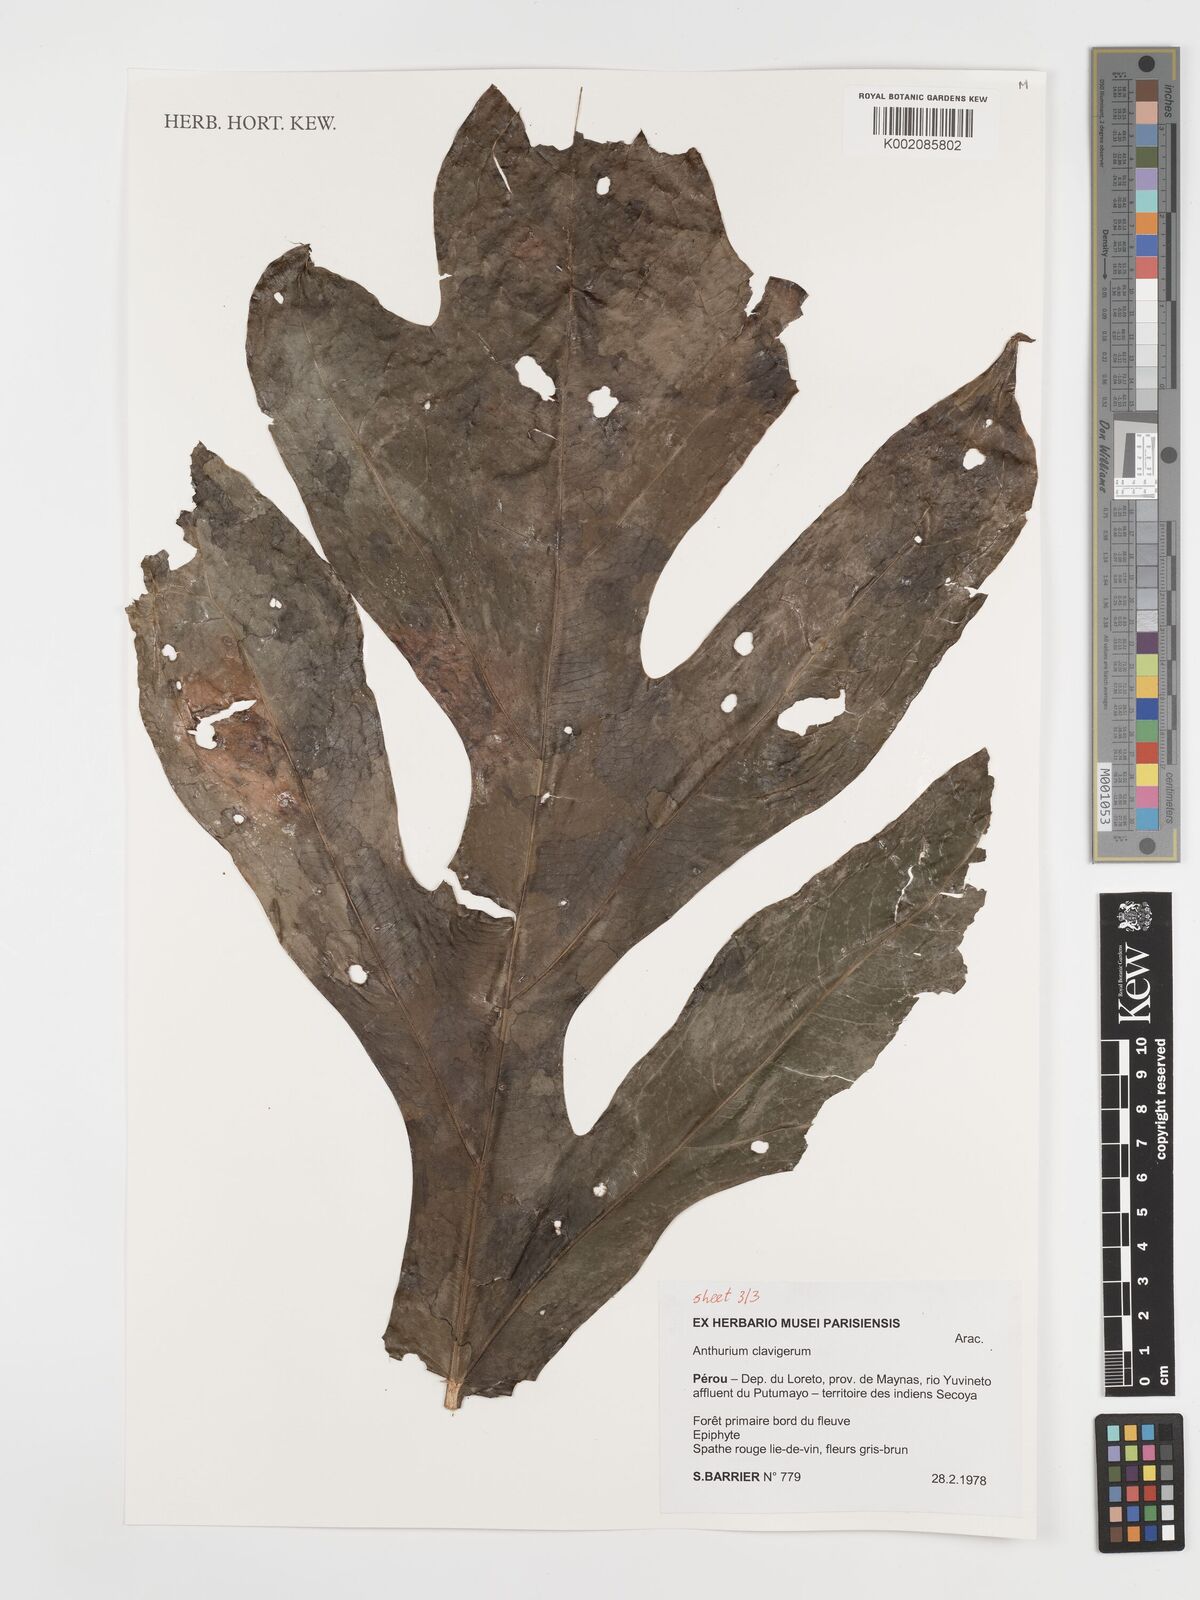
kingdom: Plantae
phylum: Tracheophyta
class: Liliopsida
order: Alismatales
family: Araceae
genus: Anthurium
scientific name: Anthurium clavigerum
